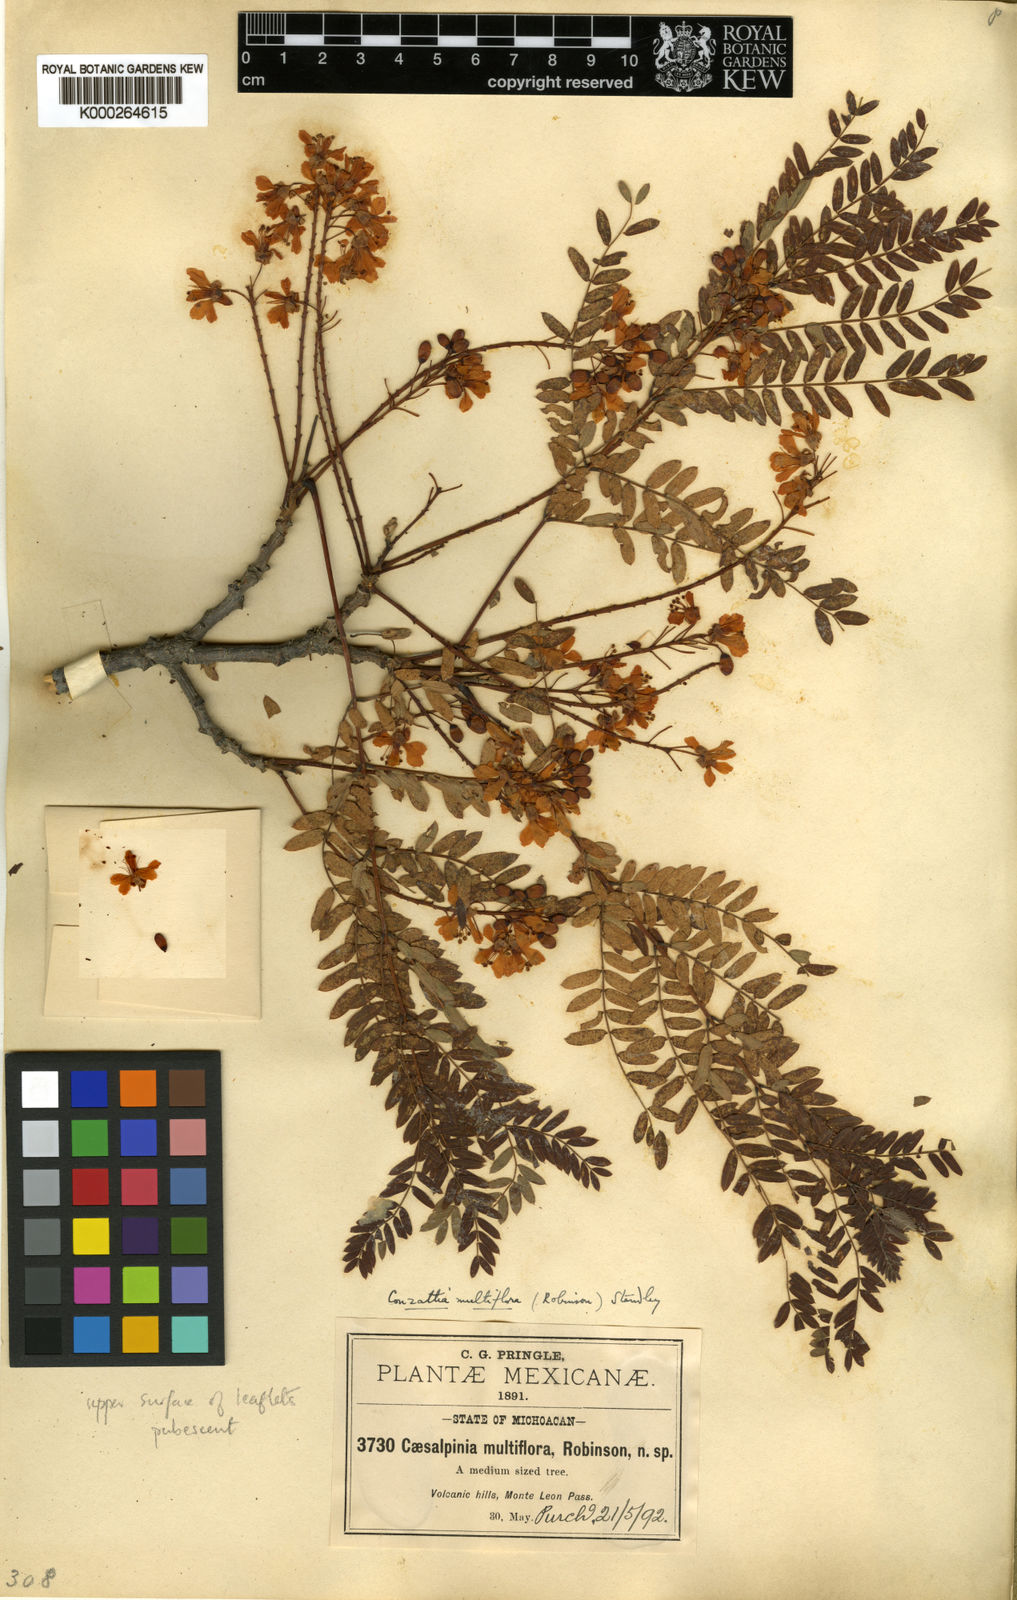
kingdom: Plantae
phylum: Tracheophyta
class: Magnoliopsida
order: Fabales
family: Fabaceae
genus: Conzattia
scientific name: Conzattia multiflora
